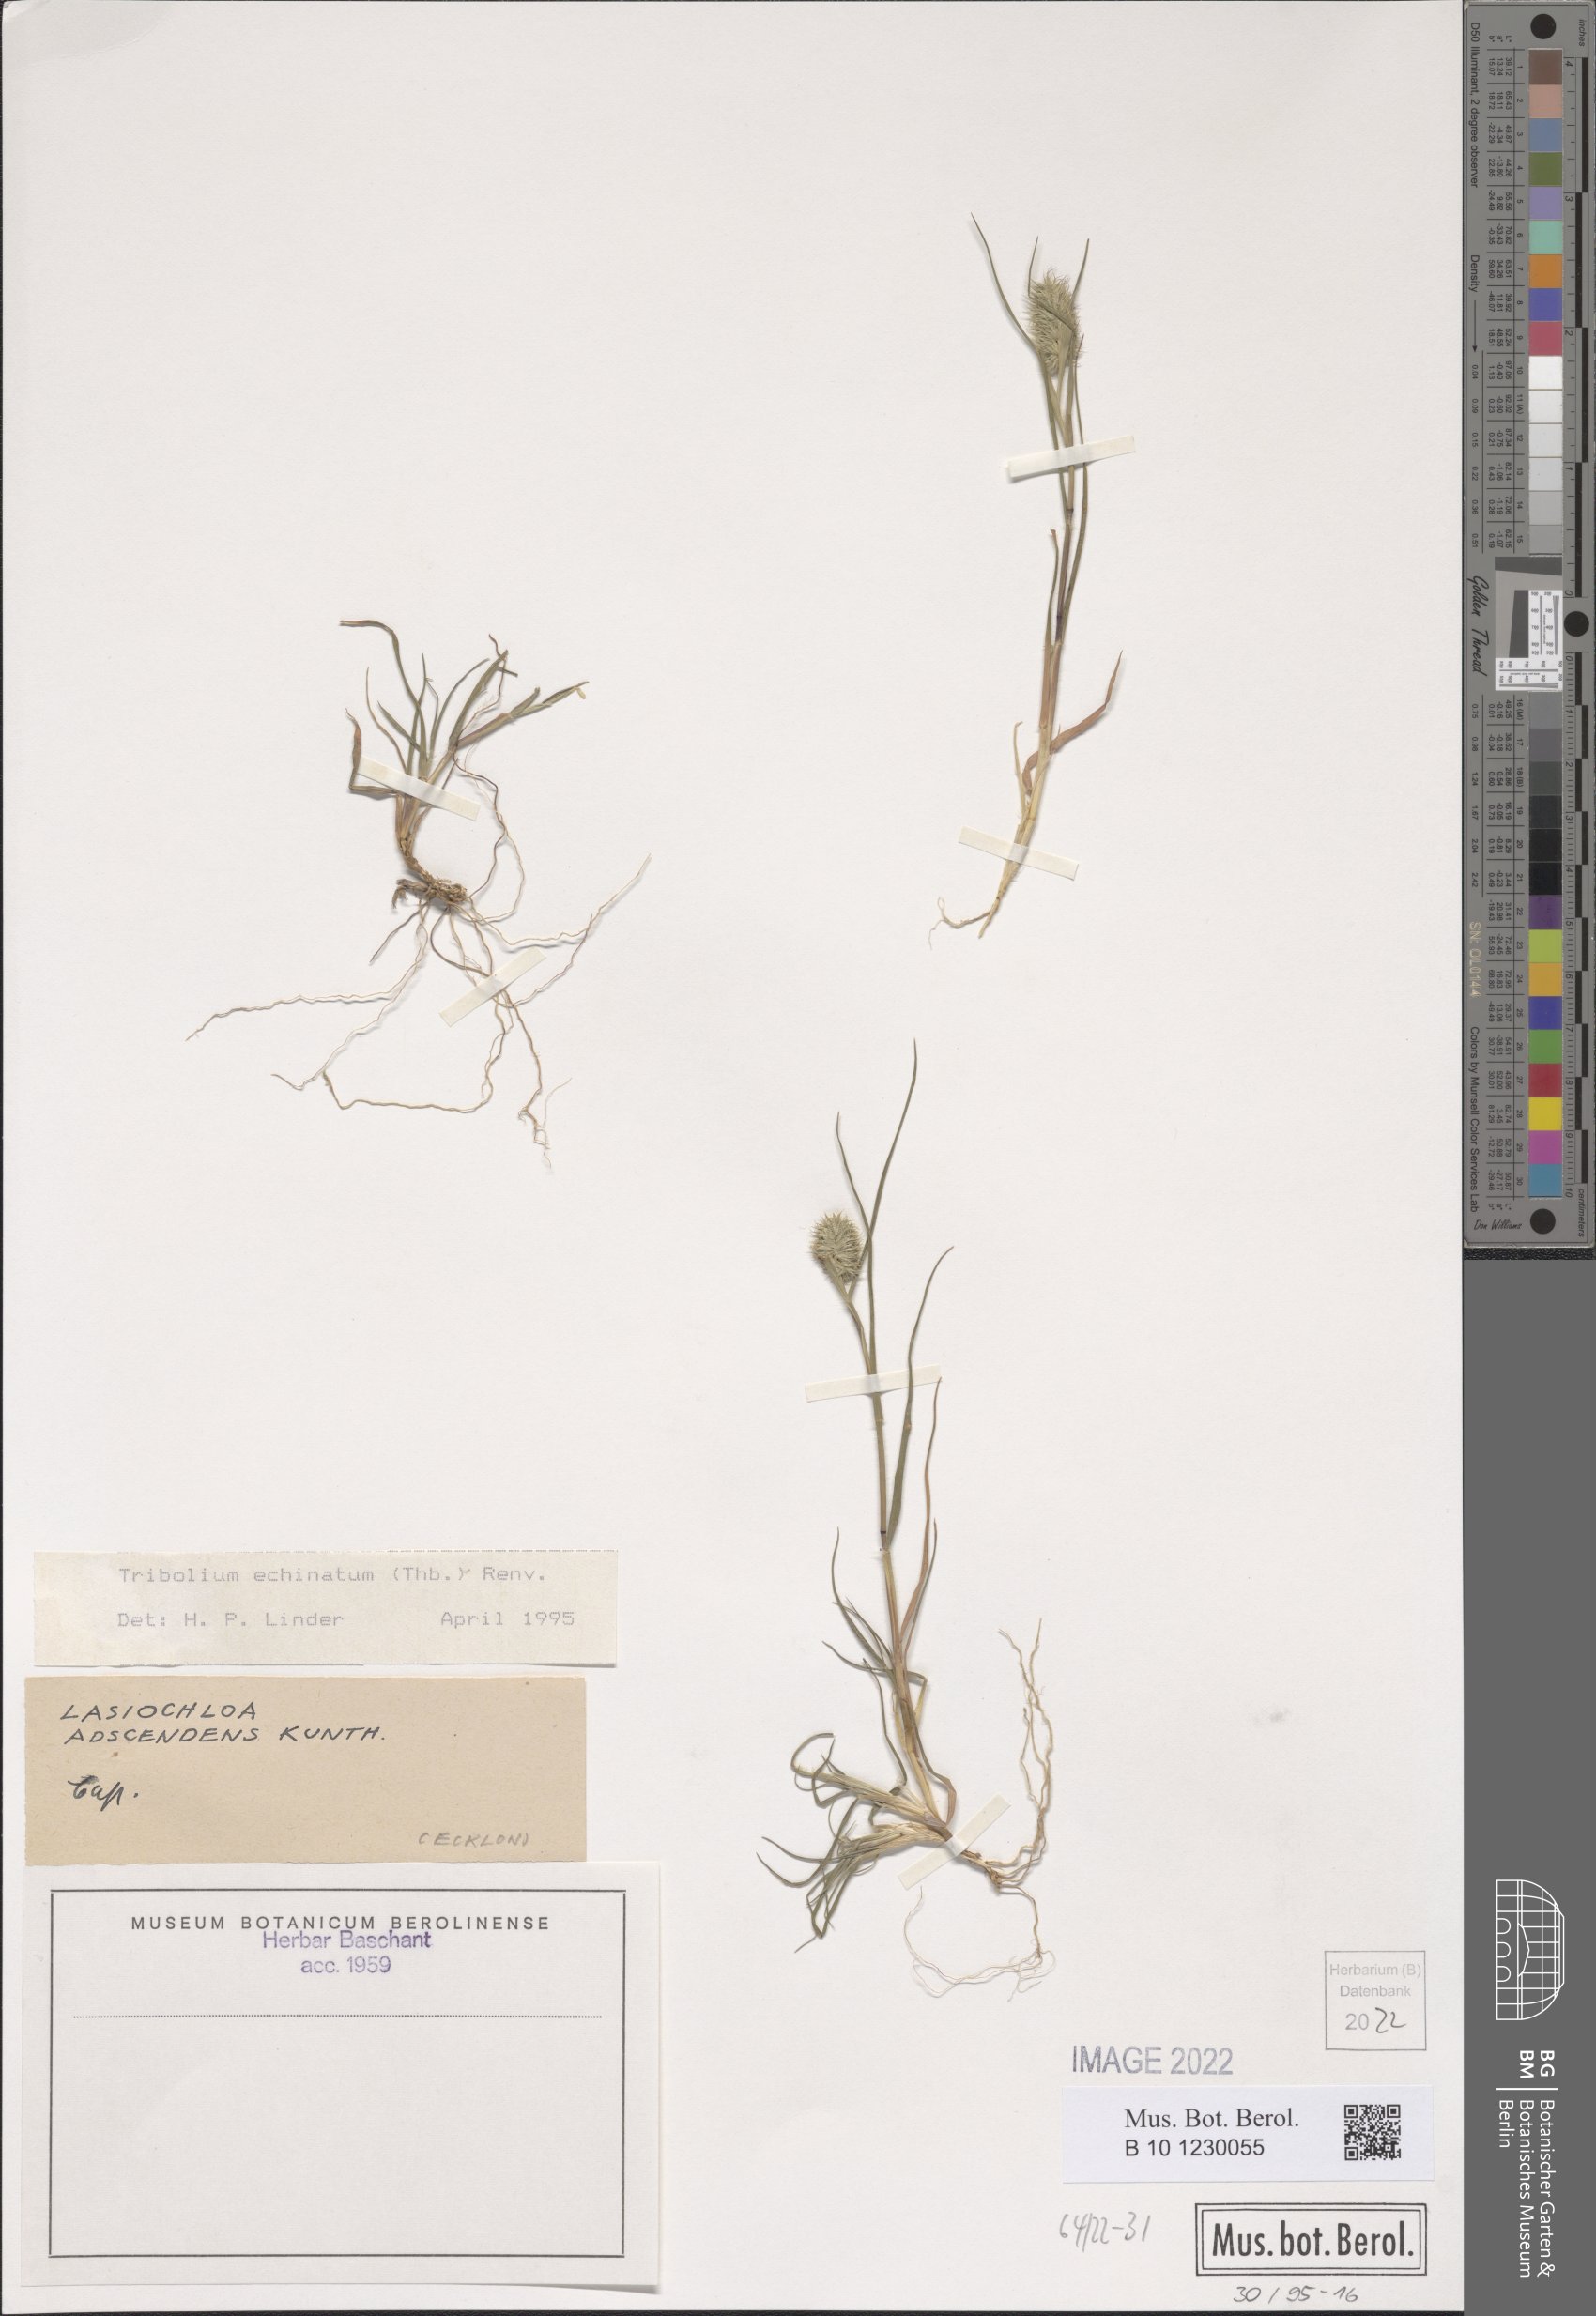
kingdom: Plantae
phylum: Tracheophyta
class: Liliopsida
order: Poales
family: Poaceae
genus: Tribolium
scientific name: Tribolium echinatum
